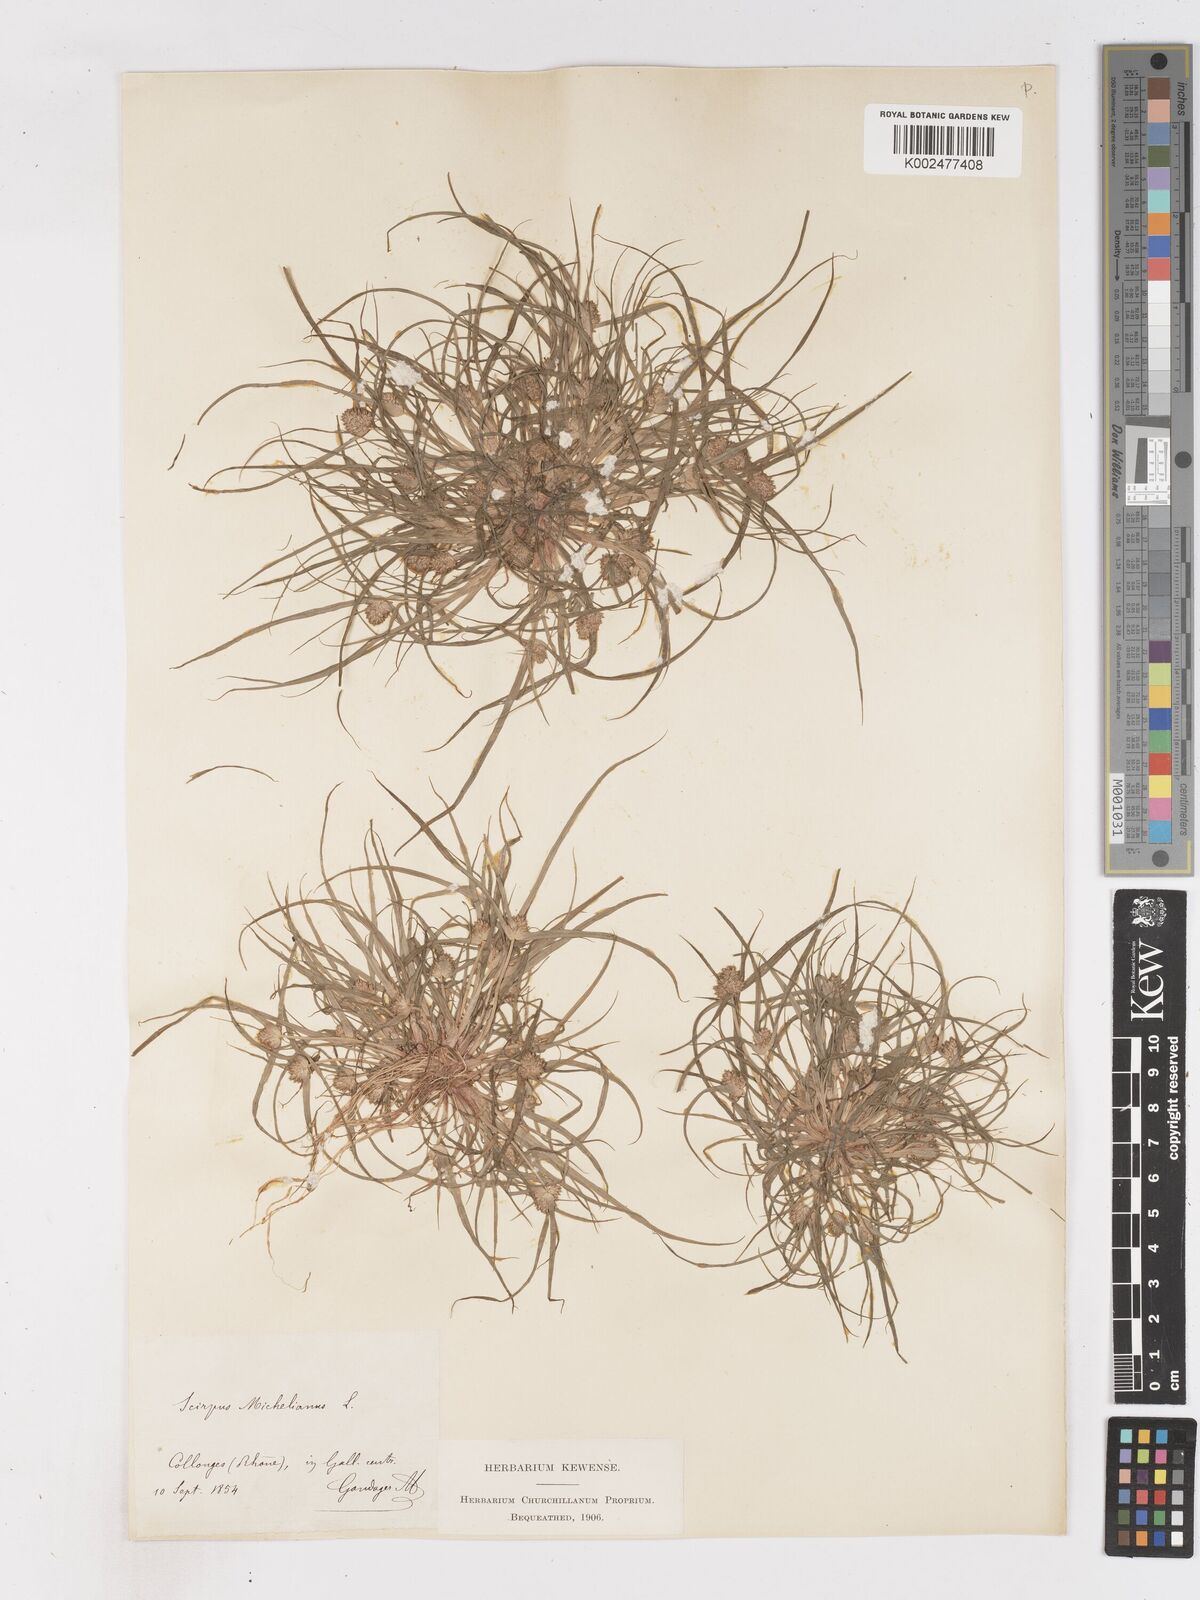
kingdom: Plantae
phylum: Tracheophyta
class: Liliopsida
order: Poales
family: Cyperaceae
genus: Cyperus
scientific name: Cyperus michelianus
